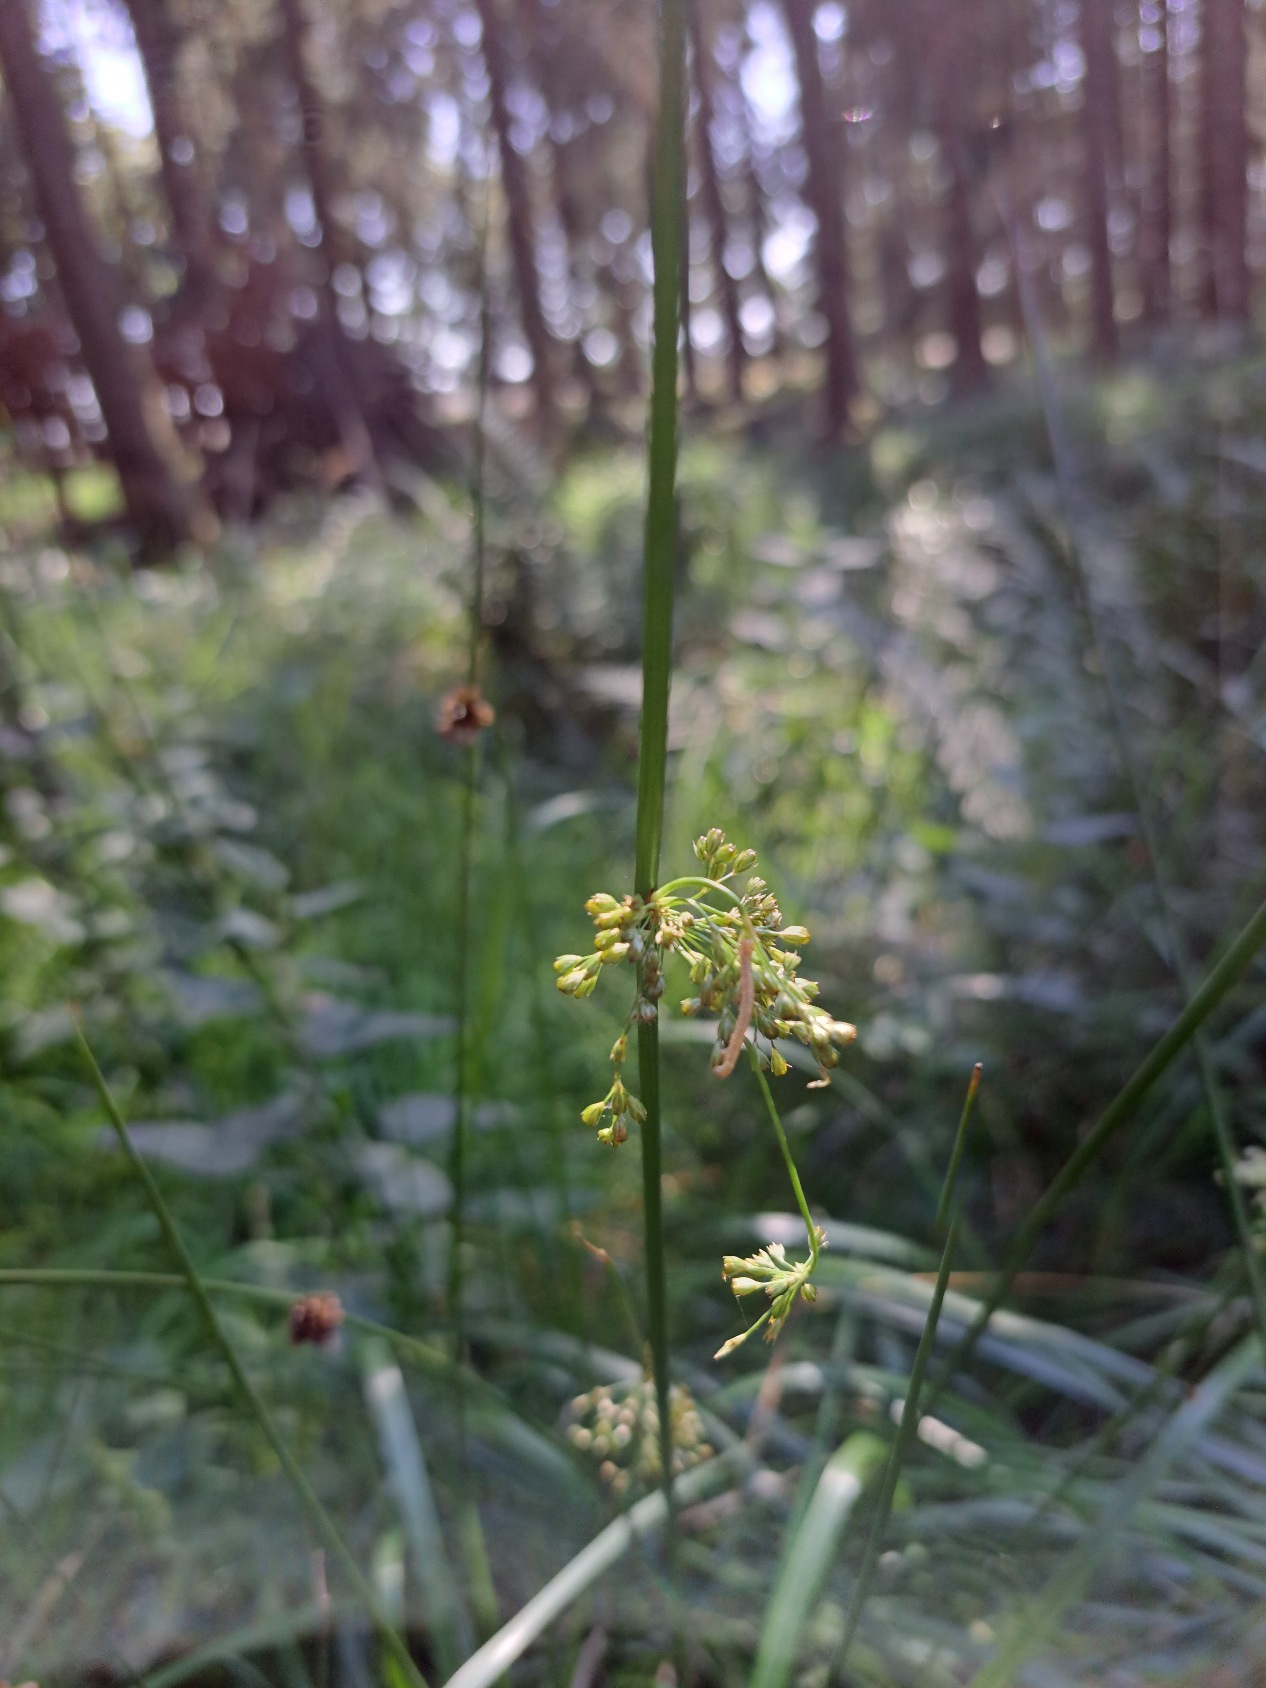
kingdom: Plantae
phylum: Tracheophyta
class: Liliopsida
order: Poales
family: Juncaceae
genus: Juncus
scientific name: Juncus effusus
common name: Lyse-siv
